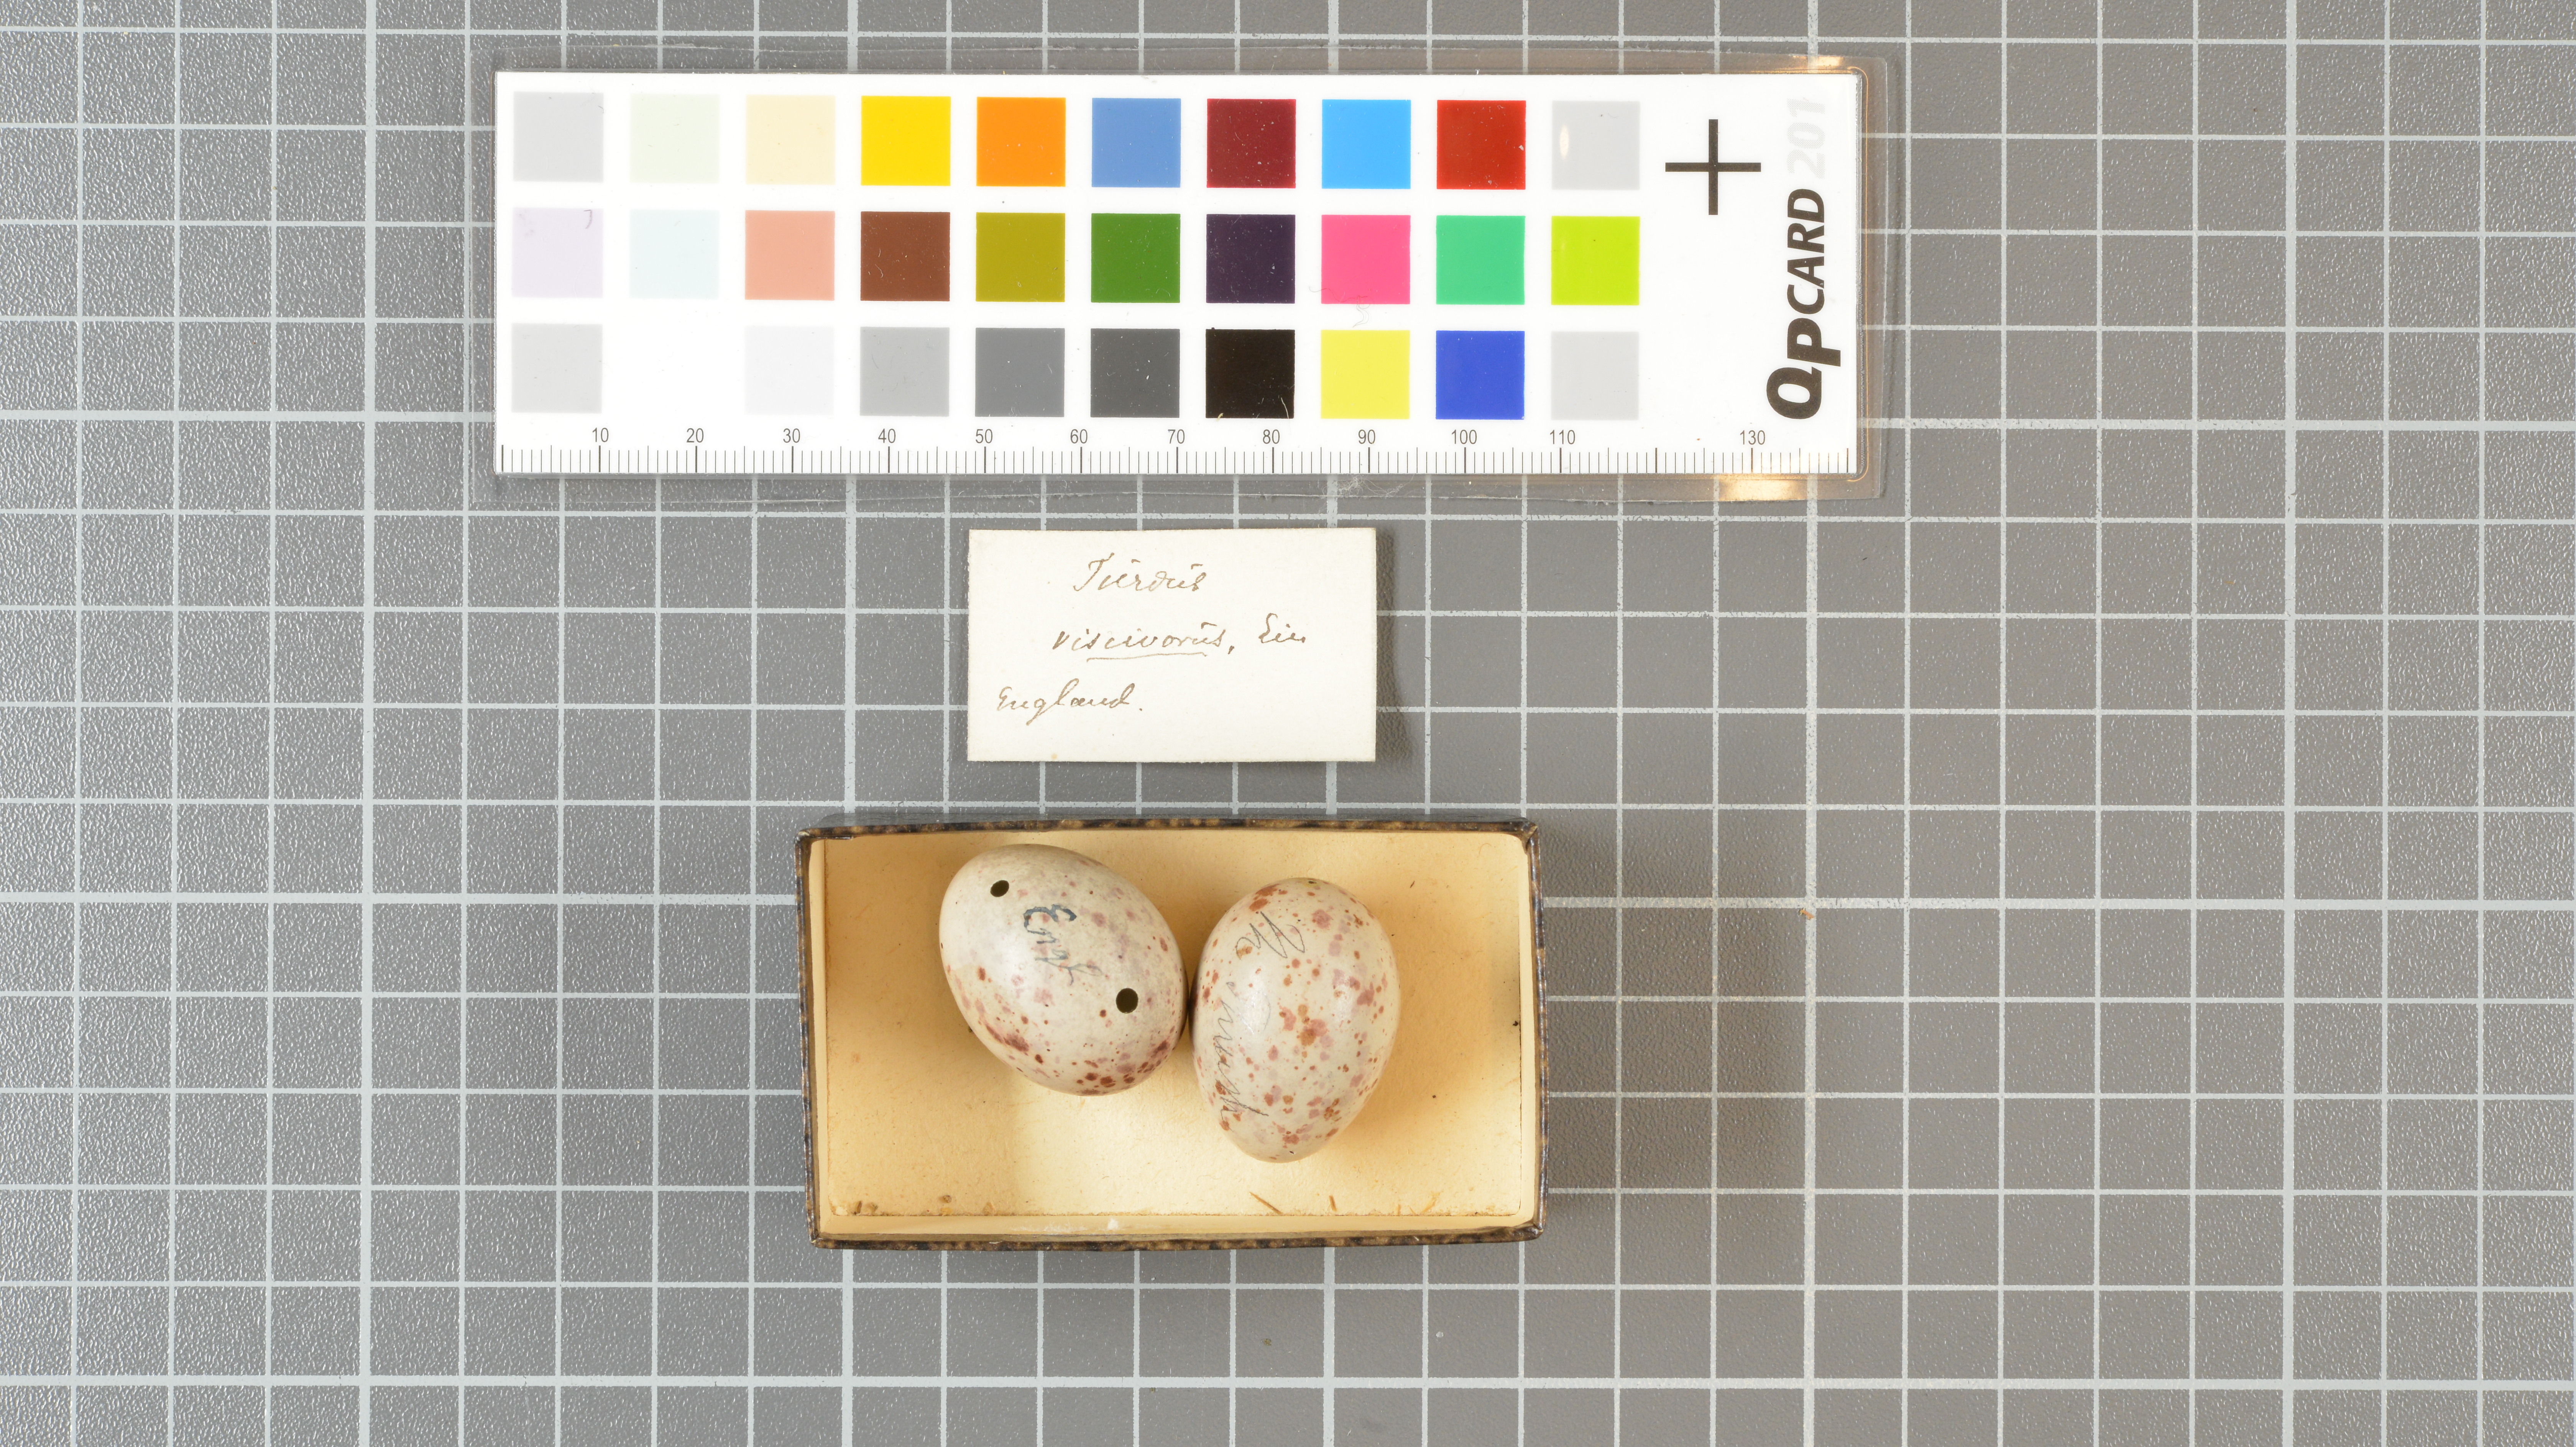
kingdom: Animalia
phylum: Chordata
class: Aves
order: Passeriformes
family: Turdidae
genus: Turdus
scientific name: Turdus viscivorus
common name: Mistle thrush
